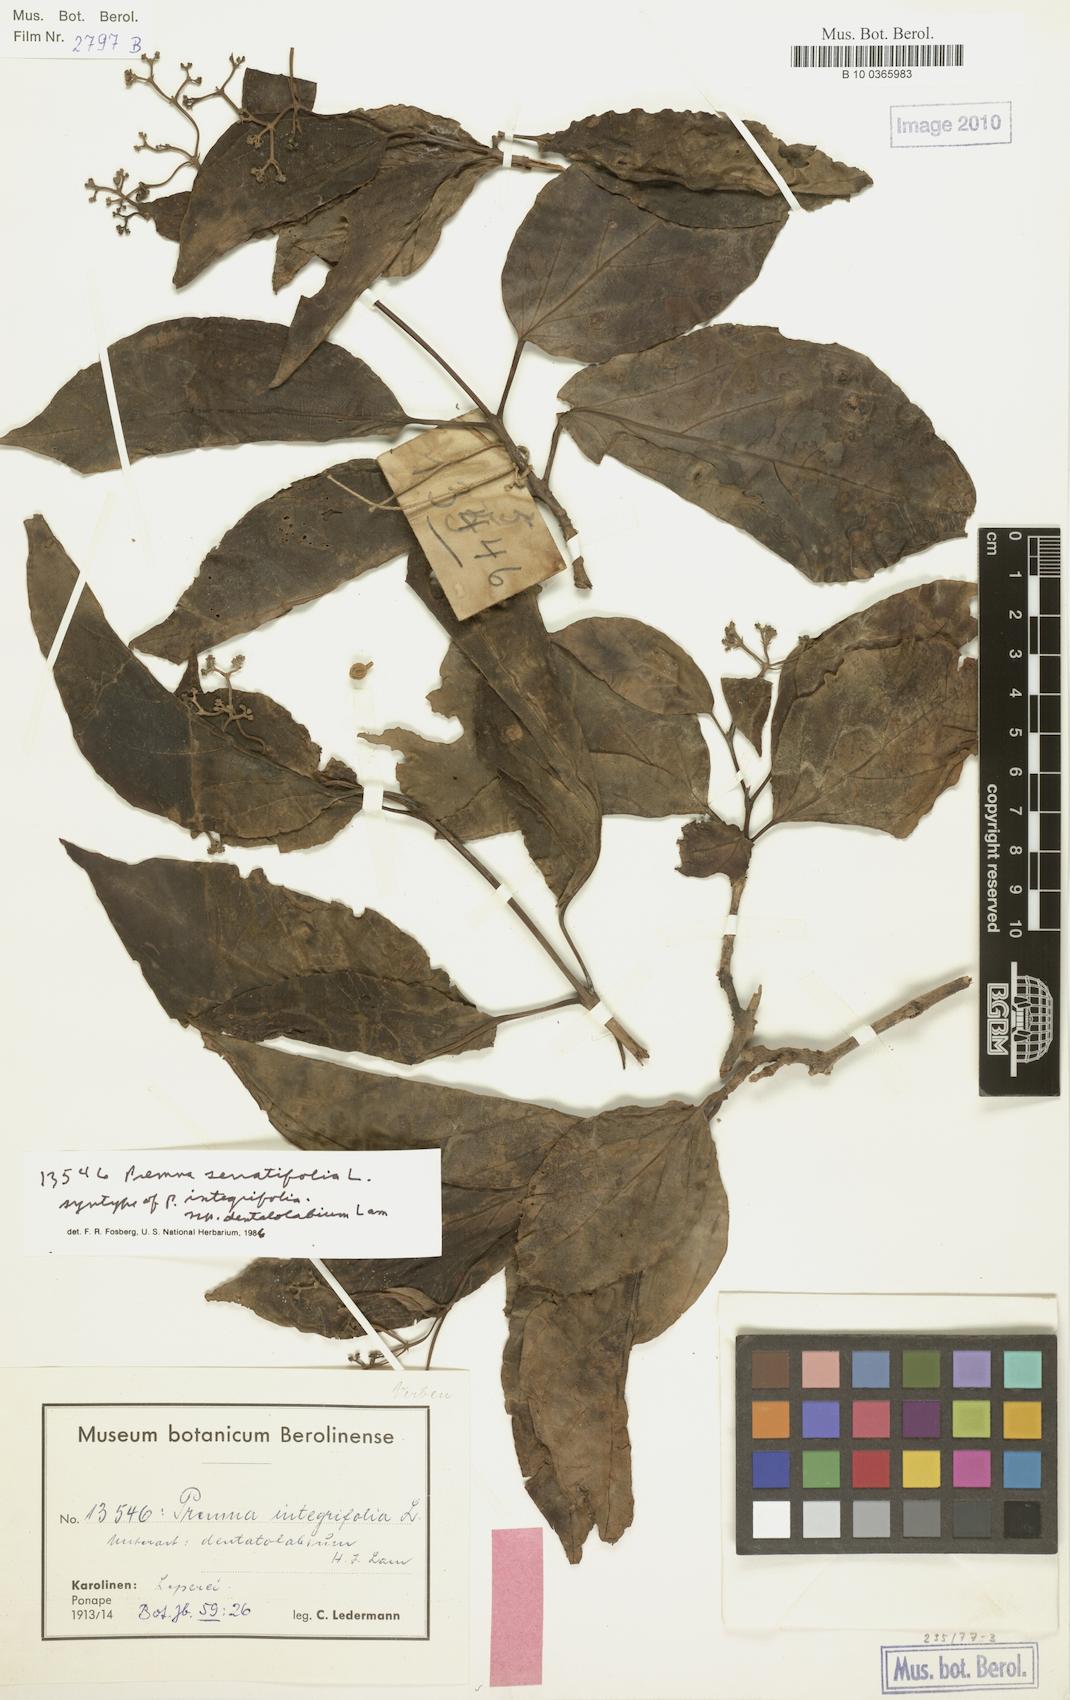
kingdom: Plantae
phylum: Tracheophyta
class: Magnoliopsida
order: Lamiales
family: Lamiaceae
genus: Premna
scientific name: Premna serratifolia
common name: Bastard guelder
